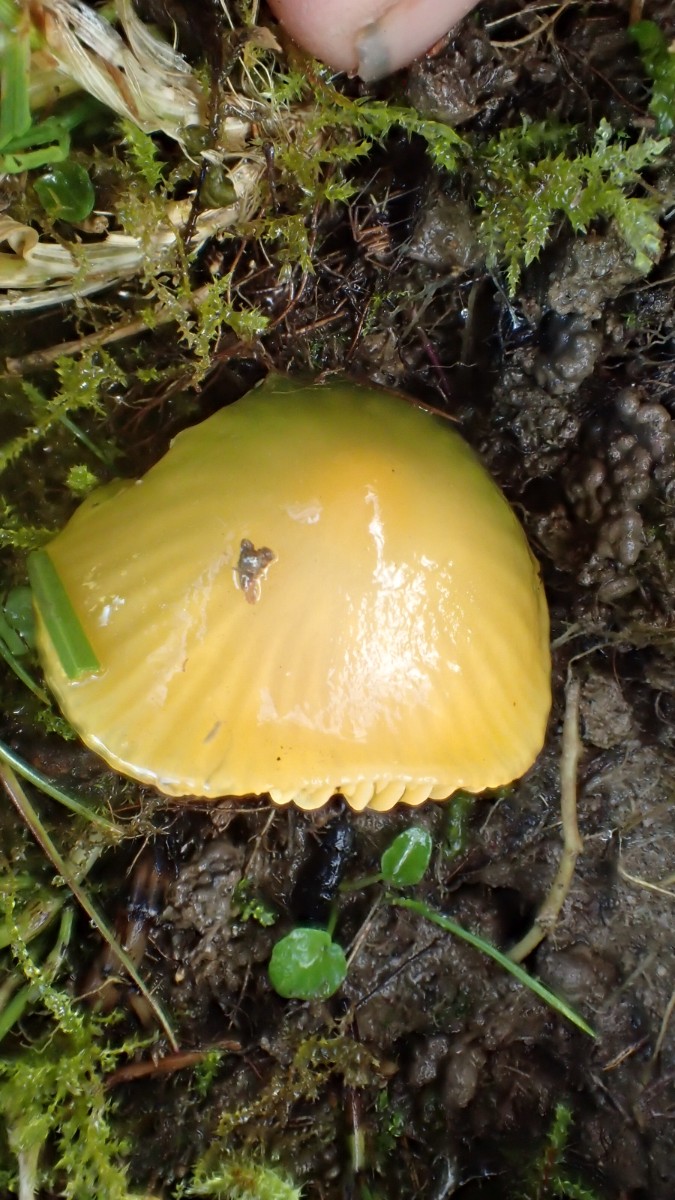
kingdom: Fungi
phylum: Basidiomycota
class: Agaricomycetes
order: Agaricales
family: Hygrophoraceae
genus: Gliophorus
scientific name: Gliophorus psittacinus
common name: papegøje-vokshat
